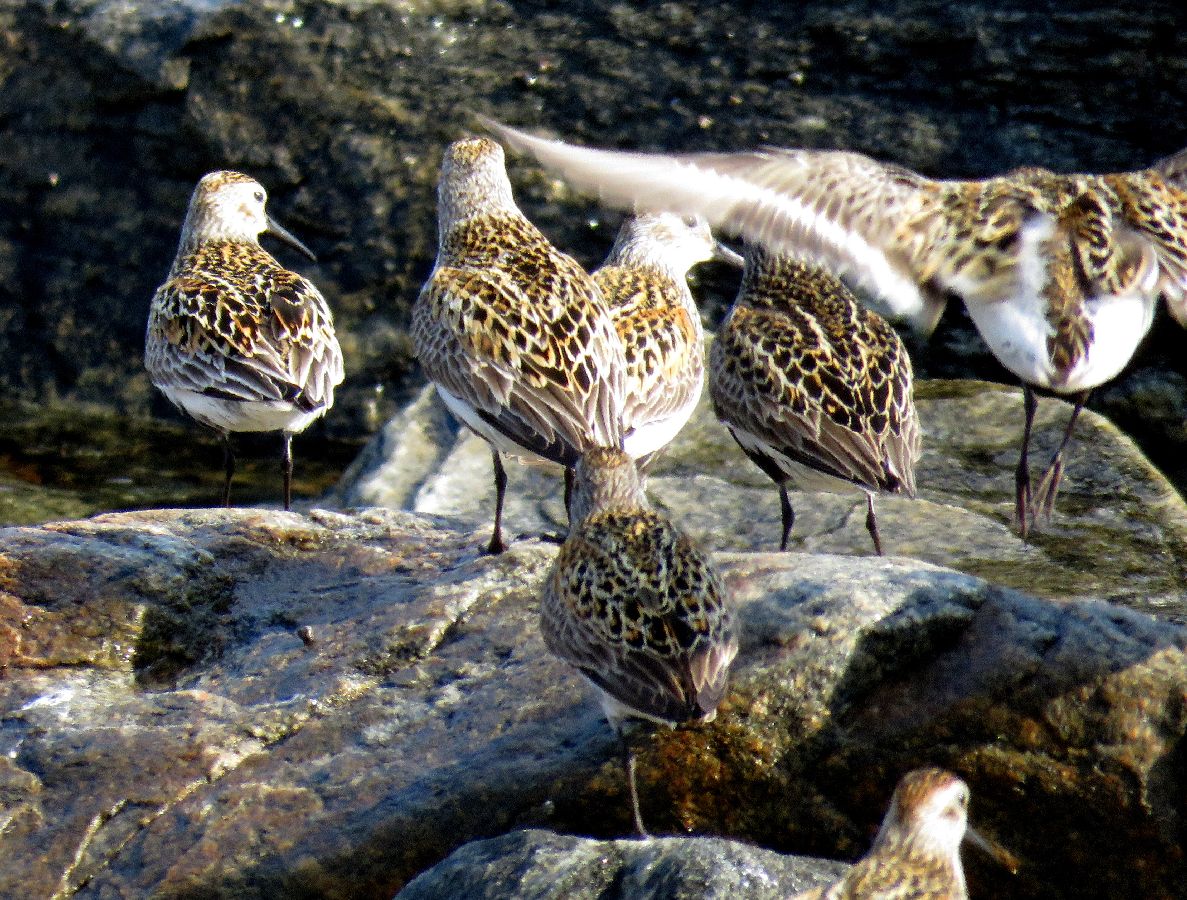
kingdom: Animalia
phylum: Chordata
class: Aves
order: Charadriiformes
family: Scolopacidae
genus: Calidris
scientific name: Calidris alpina
